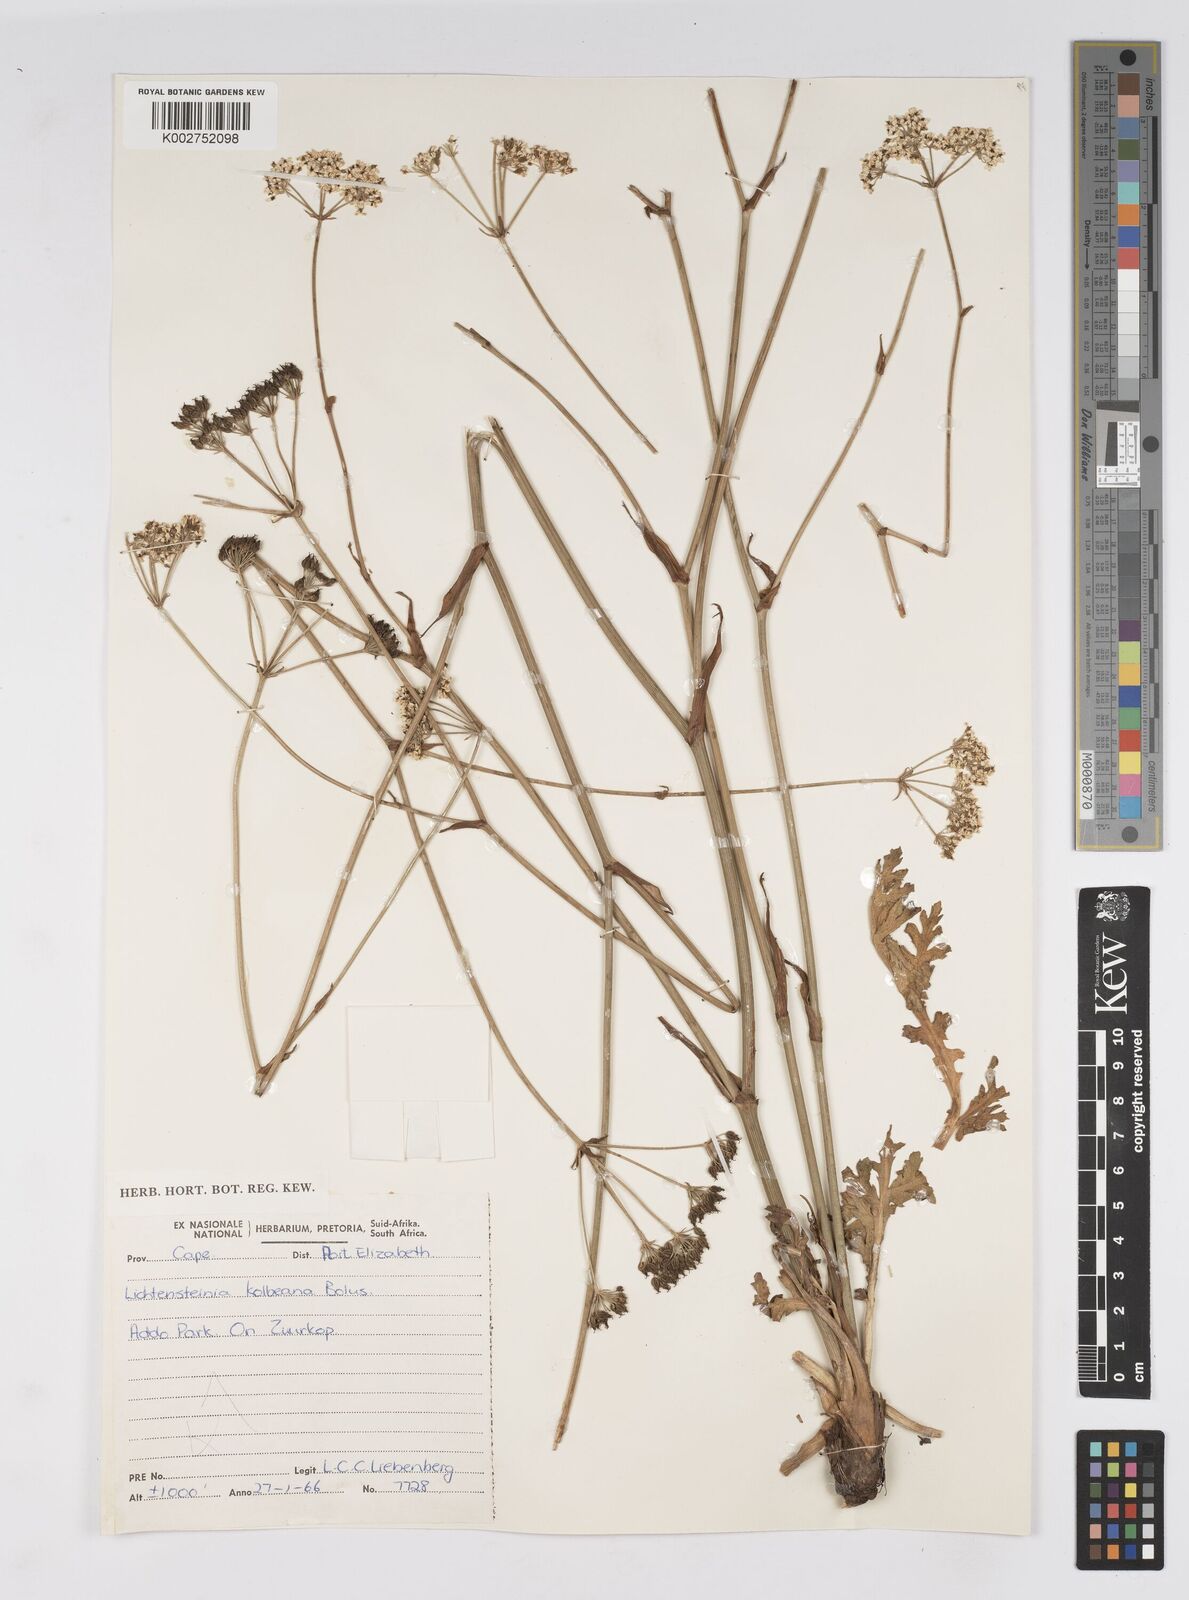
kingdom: Plantae
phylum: Tracheophyta
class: Magnoliopsida
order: Apiales
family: Apiaceae
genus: Lichtensteinia
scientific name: Lichtensteinia interrupta
